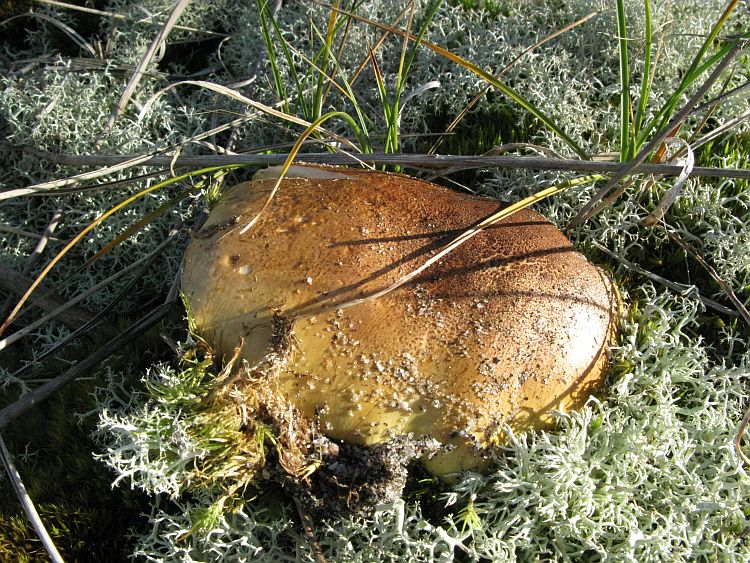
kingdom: Fungi
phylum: Basidiomycota
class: Agaricomycetes
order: Agaricales
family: Tricholomataceae
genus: Tricholoma
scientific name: Tricholoma equestre
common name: ægte ridderhat
